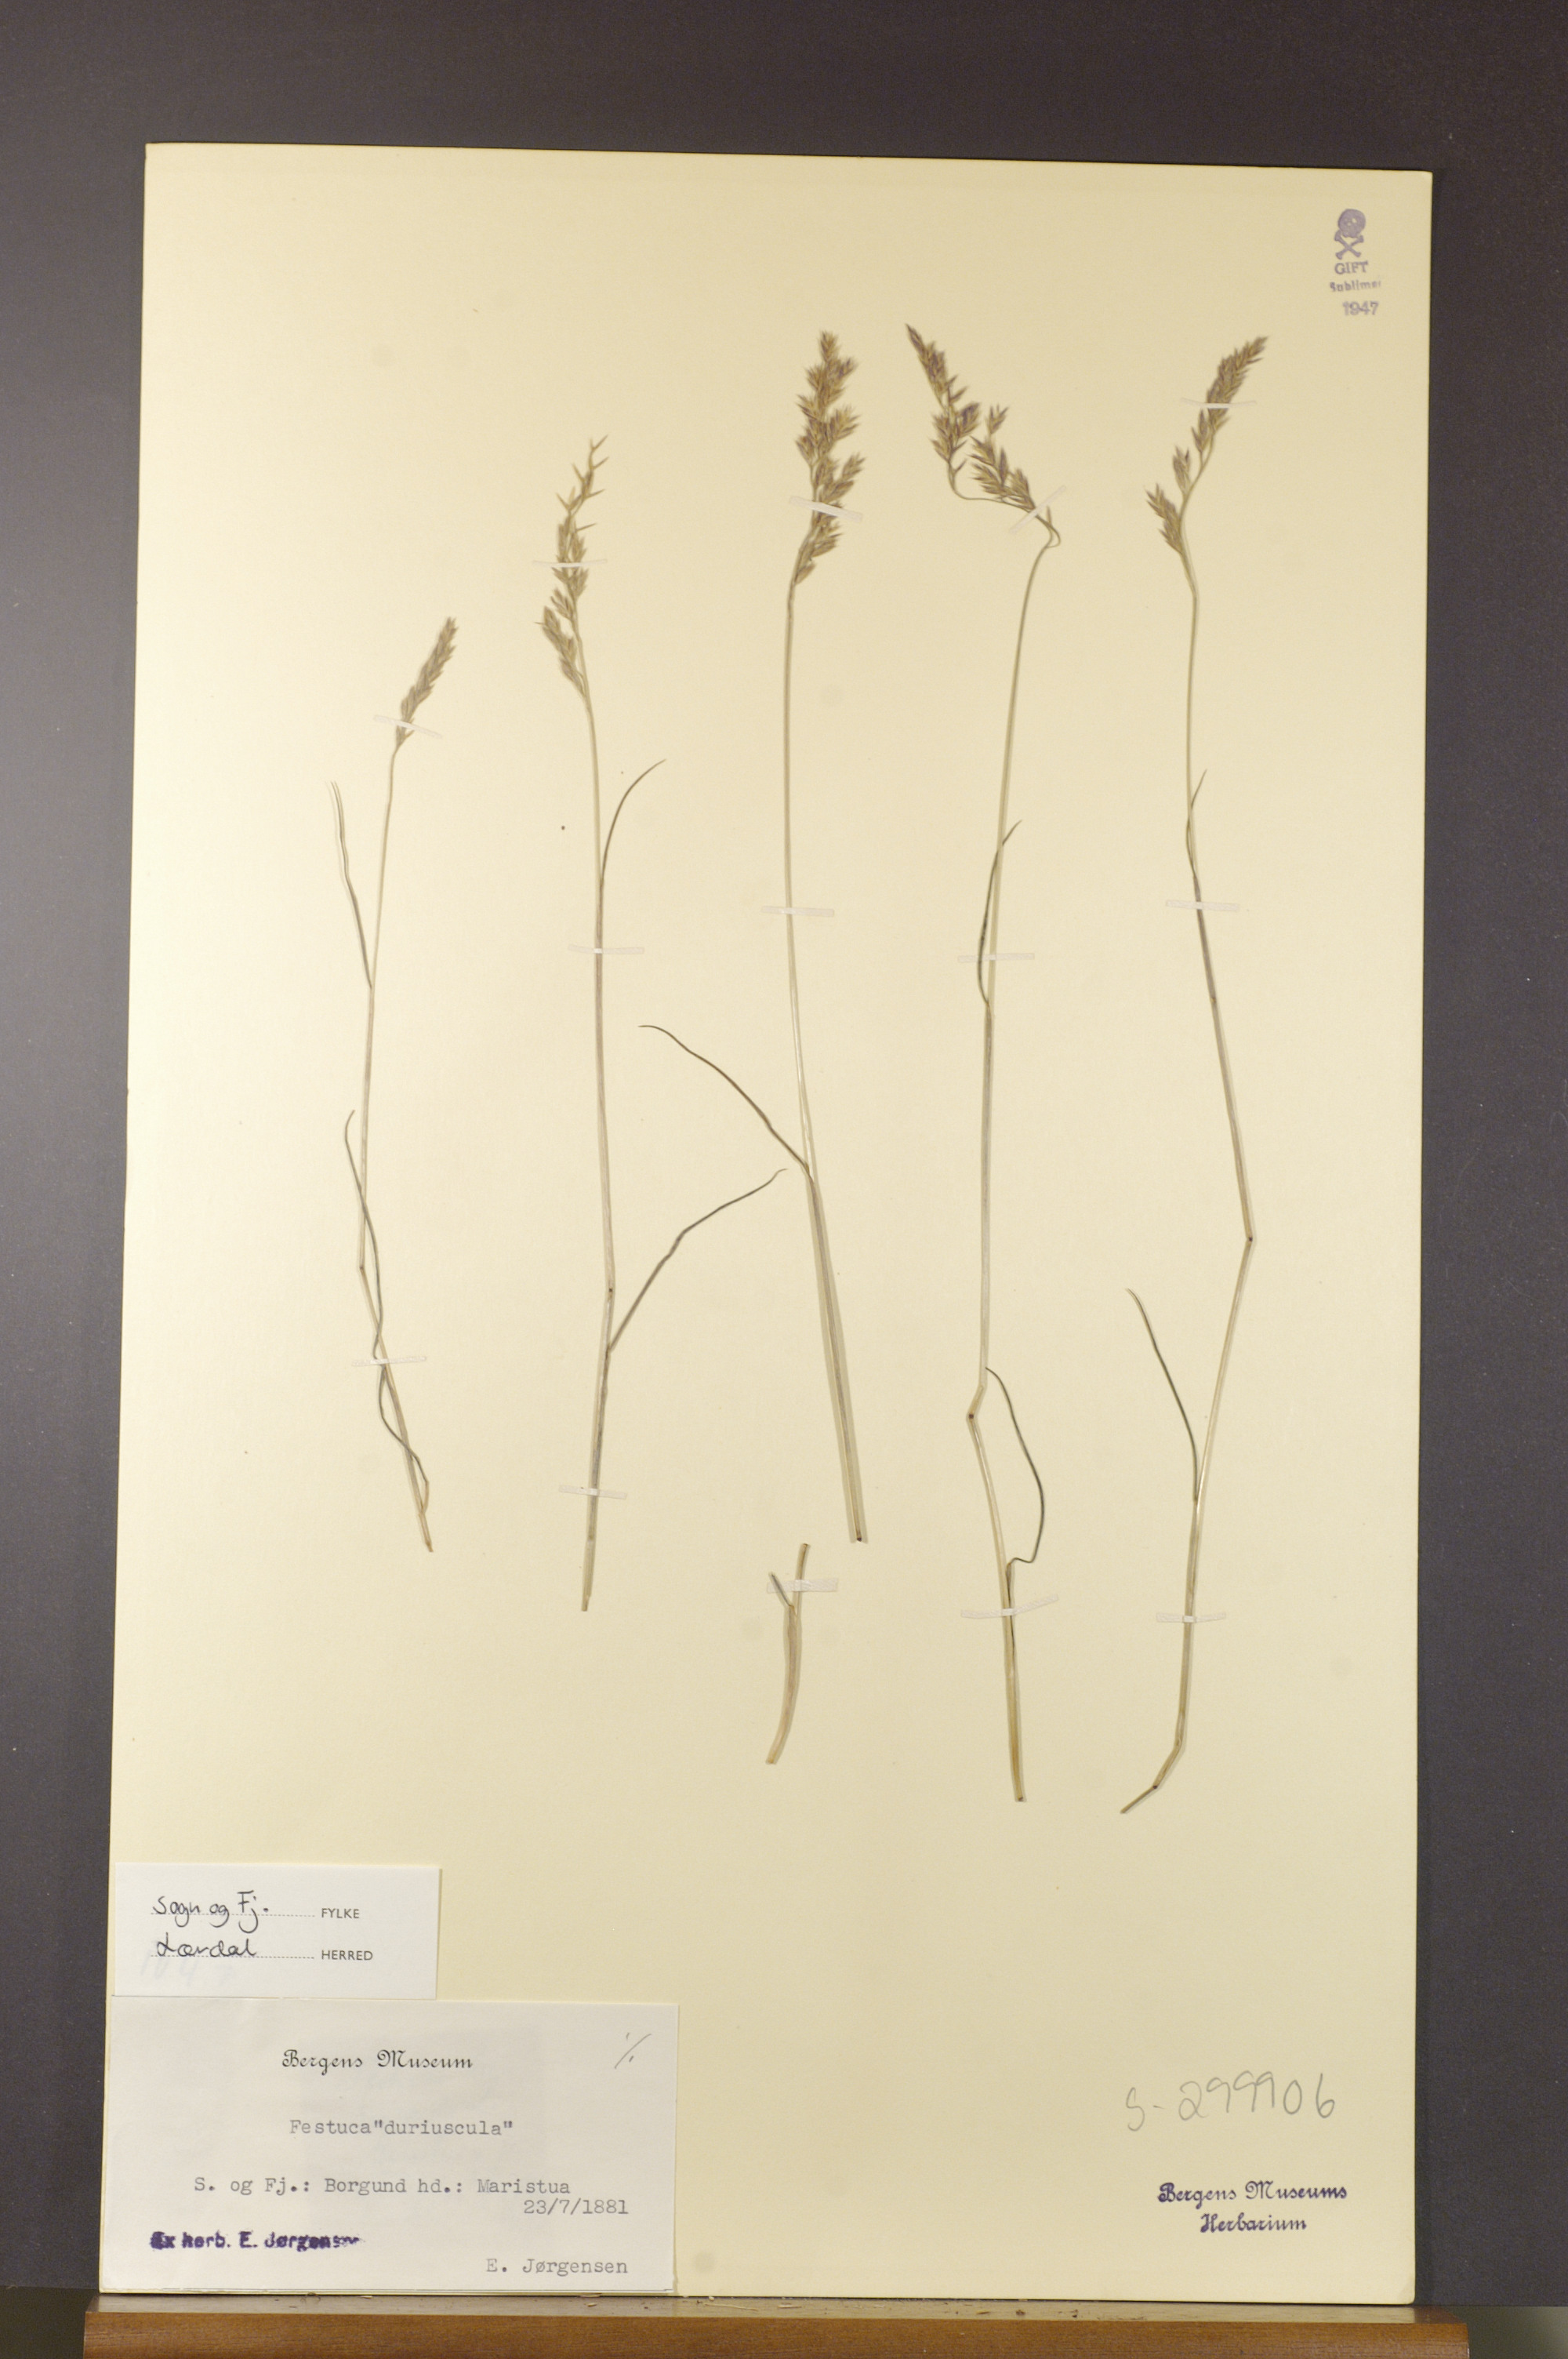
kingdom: Plantae
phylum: Tracheophyta
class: Liliopsida
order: Poales
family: Poaceae
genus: Festuca
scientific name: Festuca trachyphylla
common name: Hard fescue
